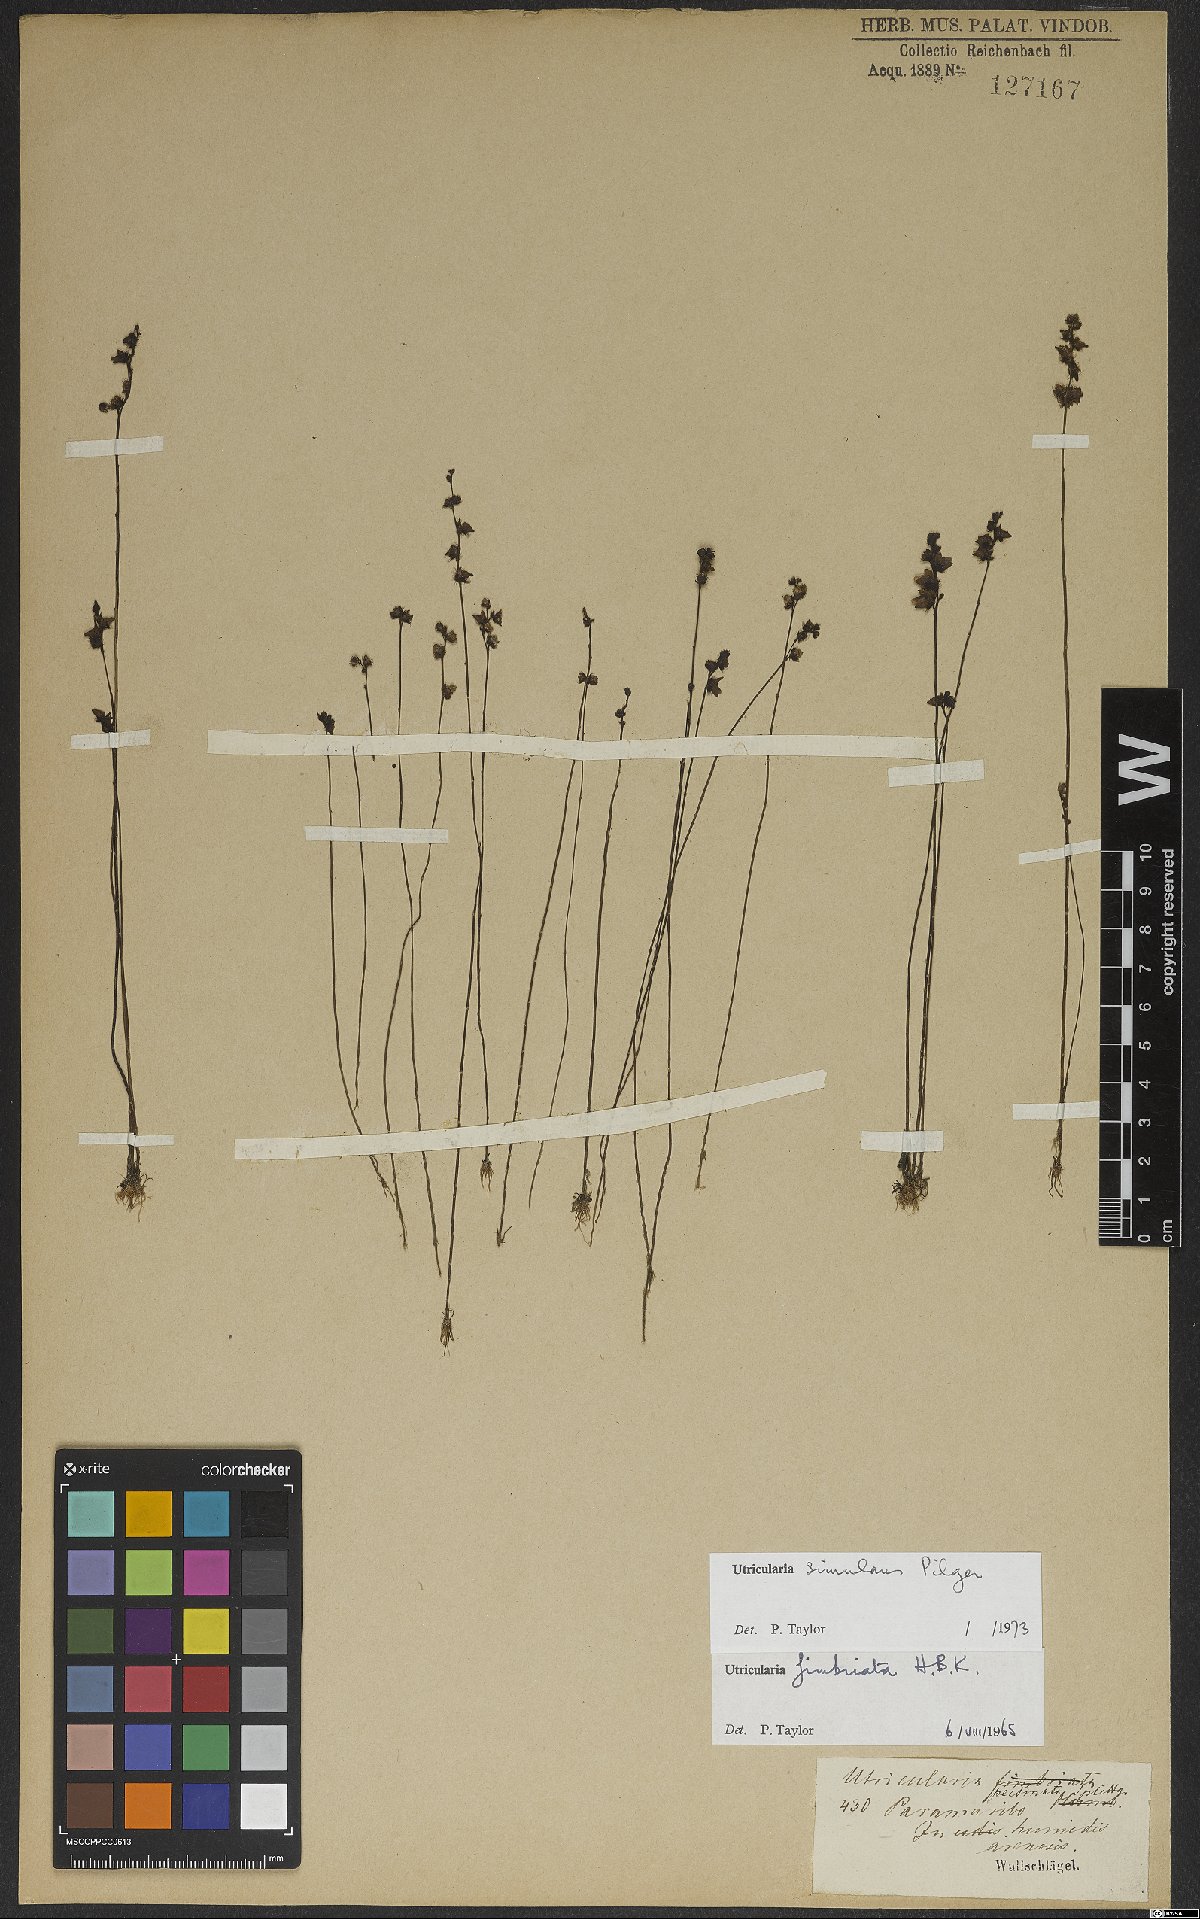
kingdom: Plantae
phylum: Tracheophyta
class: Magnoliopsida
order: Lamiales
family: Lentibulariaceae
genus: Utricularia
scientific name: Utricularia simulans
